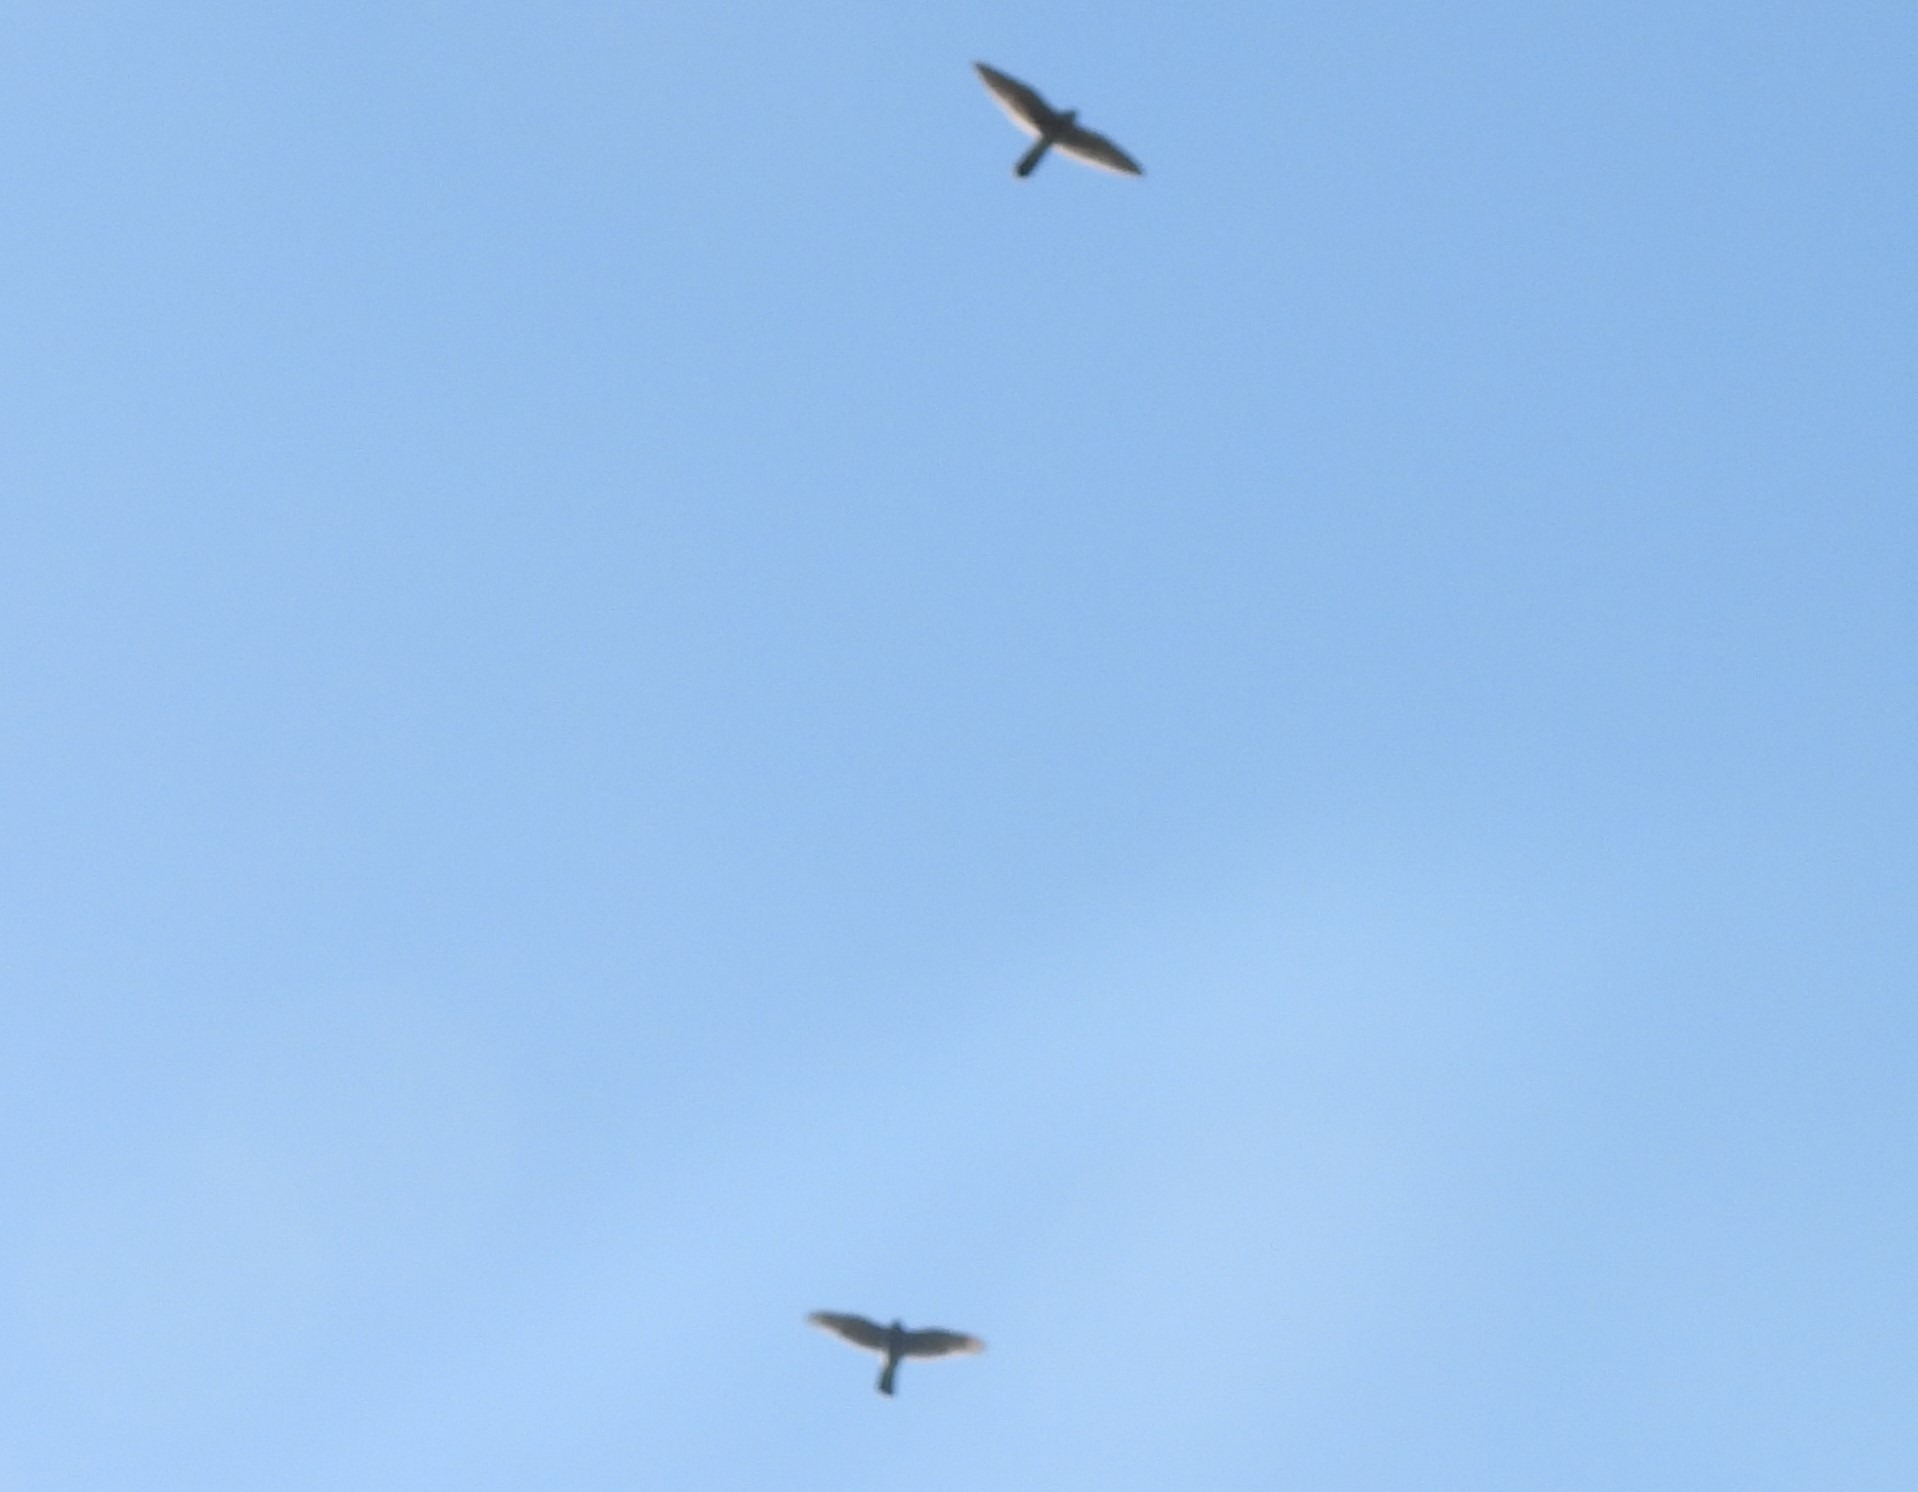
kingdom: Animalia
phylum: Chordata
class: Aves
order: Accipitriformes
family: Accipitridae
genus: Accipiter
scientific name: Accipiter nisus
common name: Spurvehøg
